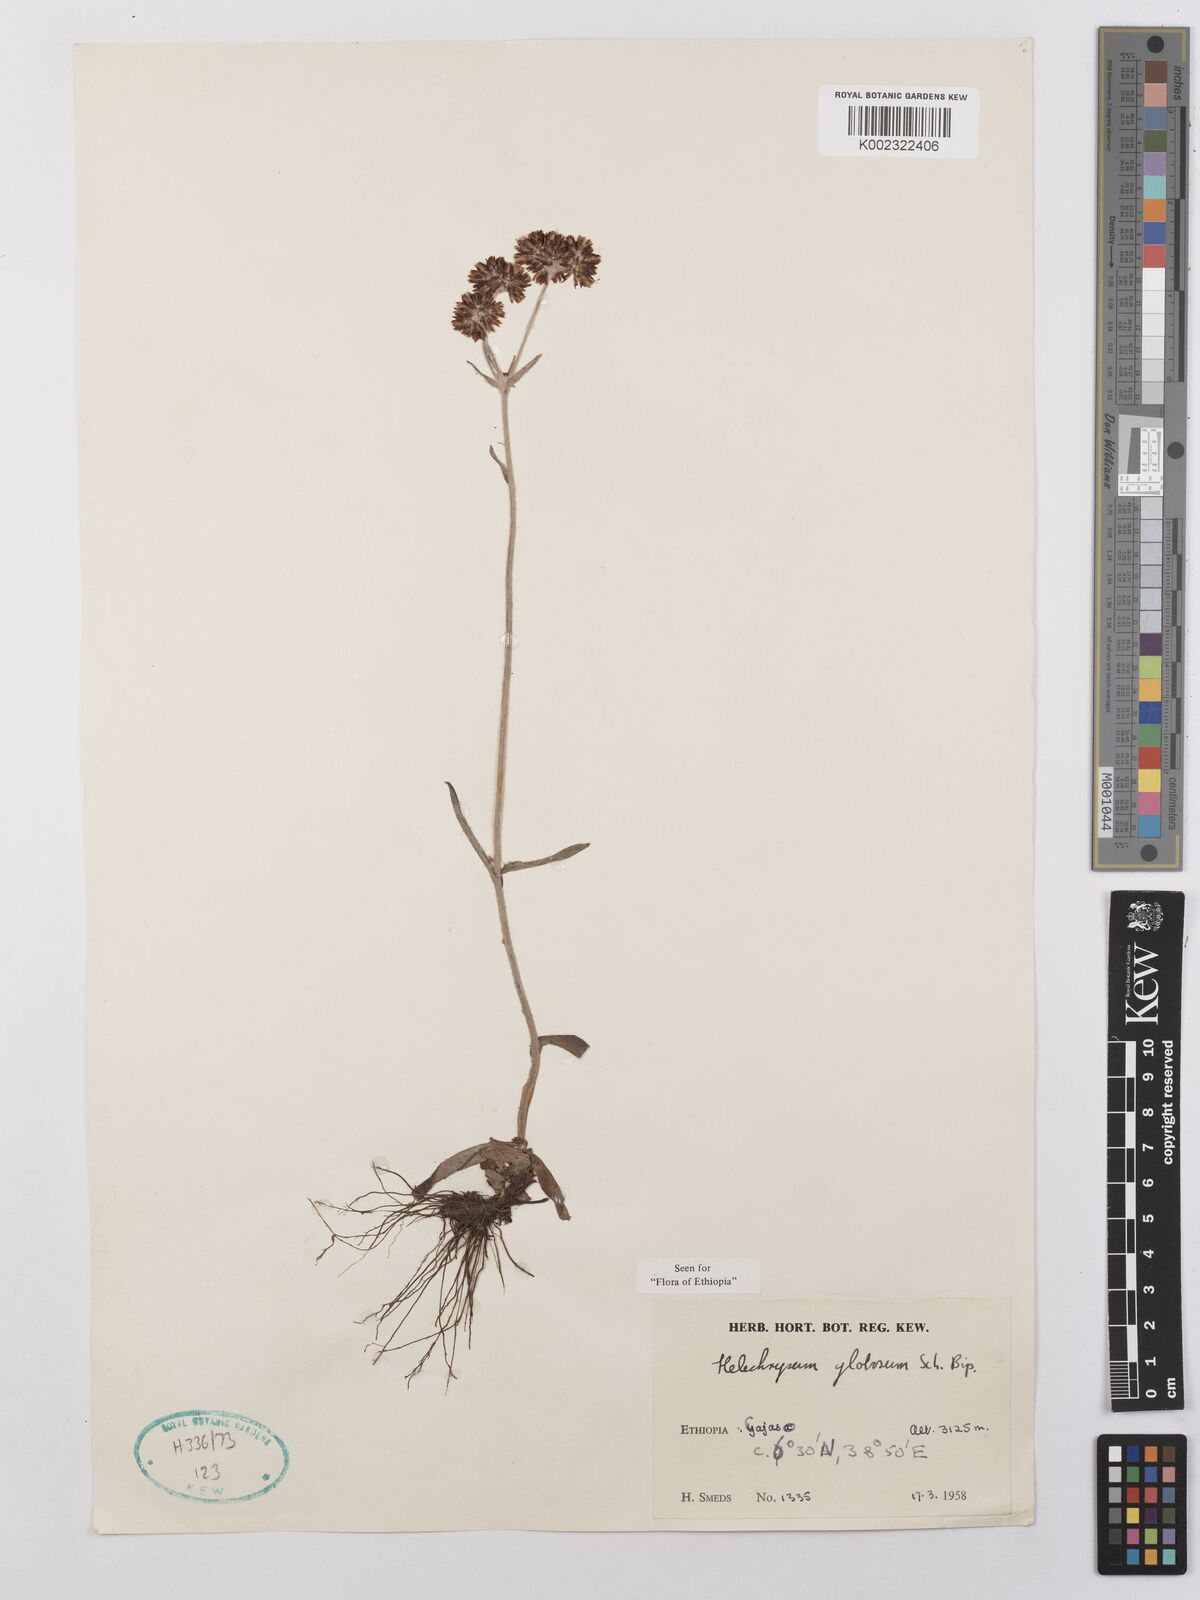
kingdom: Plantae
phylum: Tracheophyta
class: Magnoliopsida
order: Asterales
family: Asteraceae
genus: Helichrysum
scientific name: Helichrysum globosum
